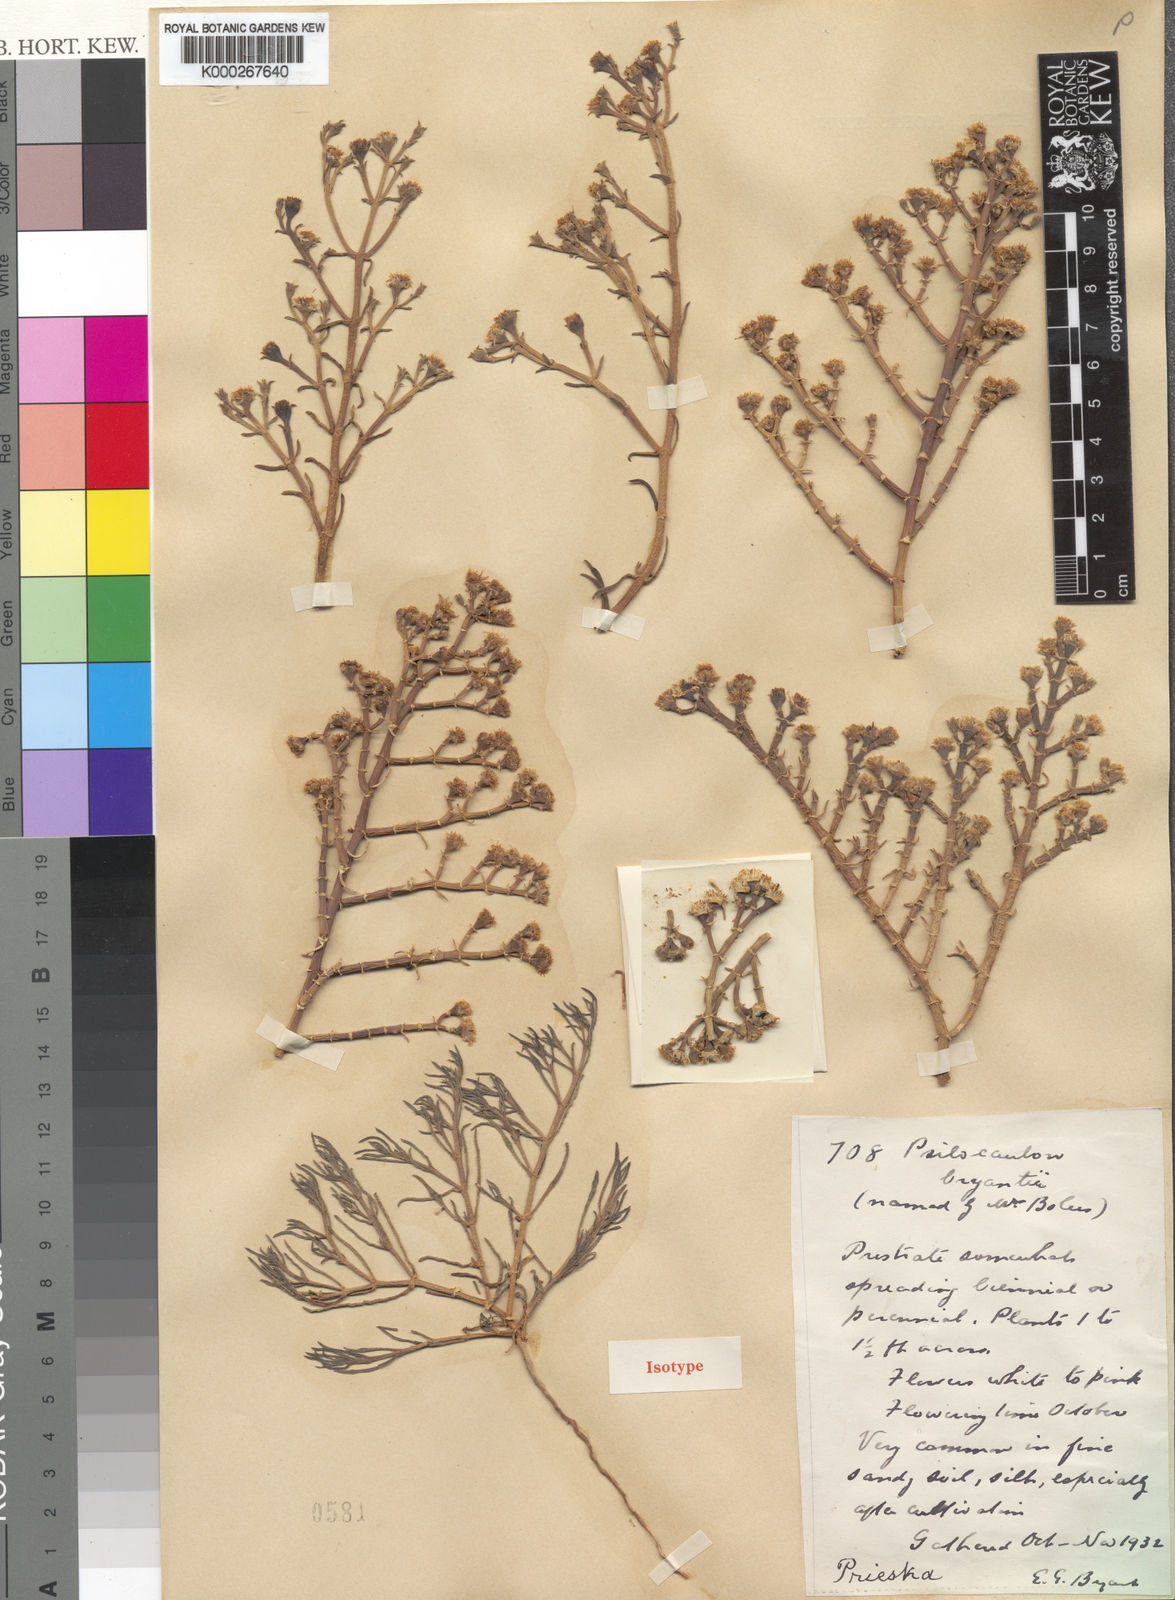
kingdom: Plantae
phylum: Tracheophyta
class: Magnoliopsida
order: Caryophyllales
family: Aizoaceae
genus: Mesembryanthemum
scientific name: Mesembryanthemum articulatum
